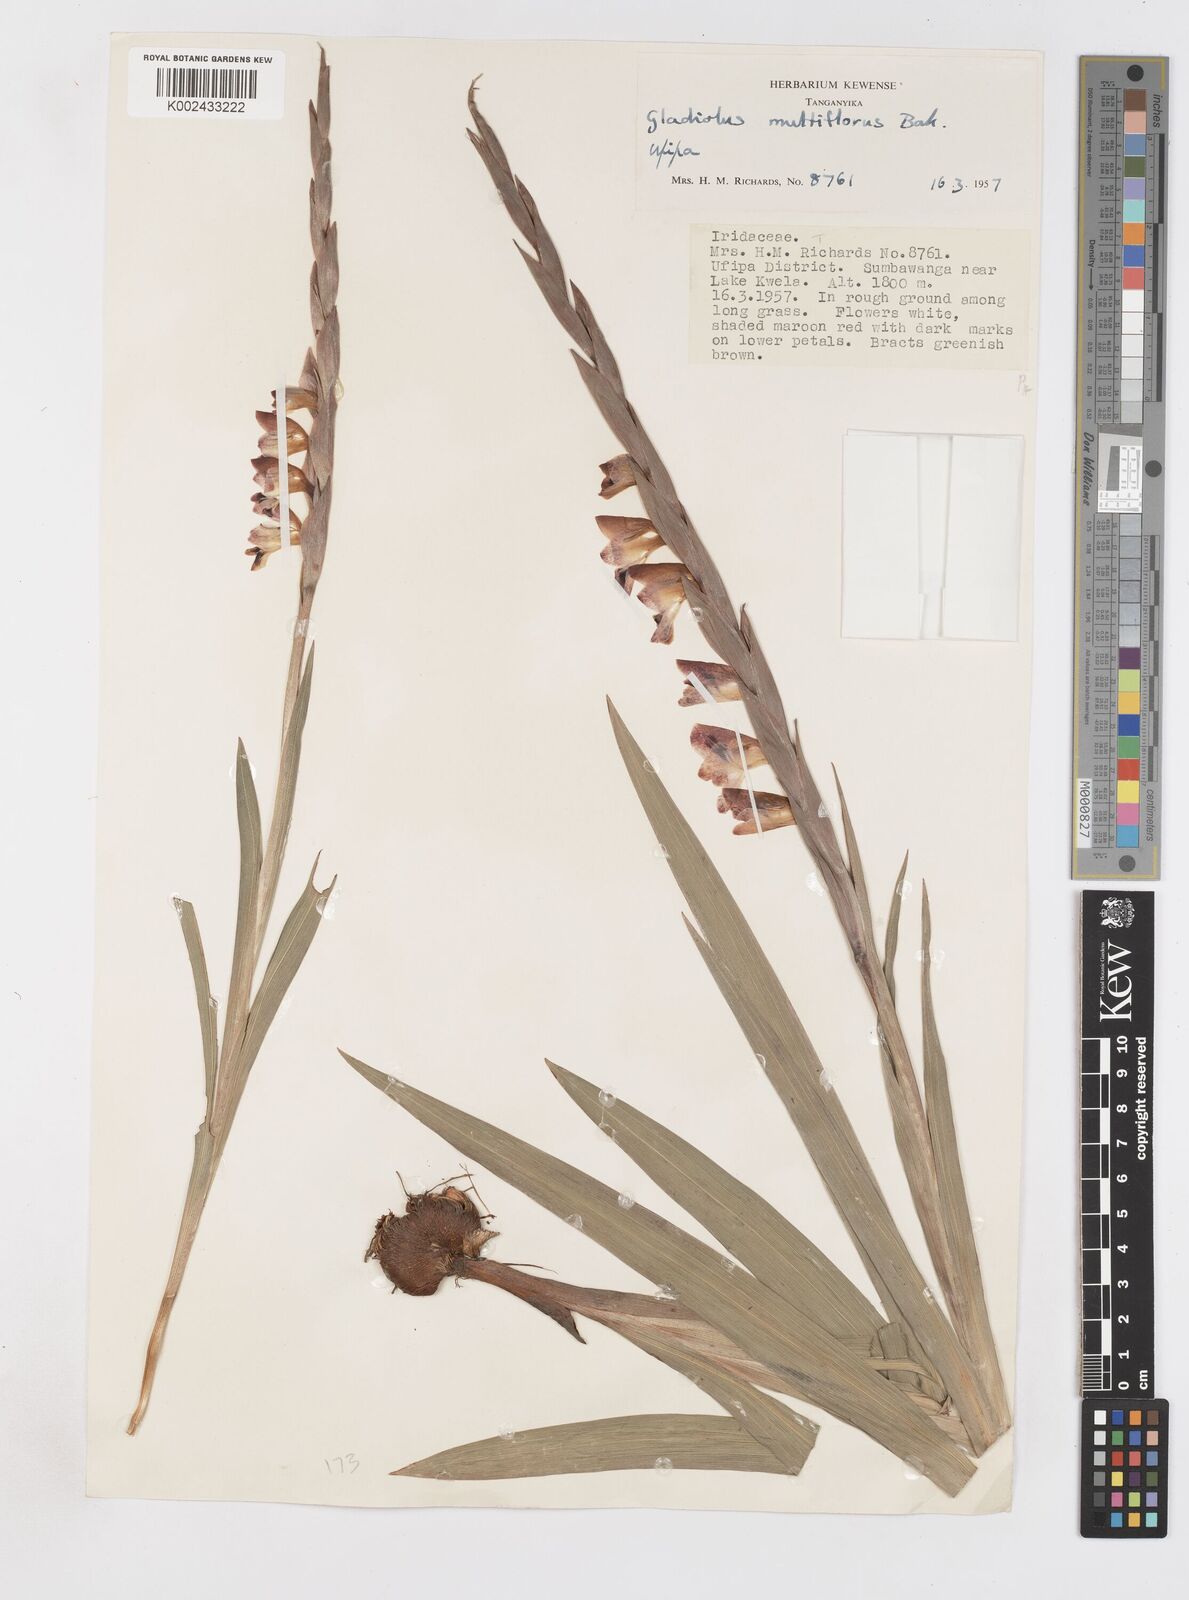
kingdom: Plantae
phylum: Tracheophyta
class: Liliopsida
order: Asparagales
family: Iridaceae
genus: Gladiolus
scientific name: Gladiolus gregarius
